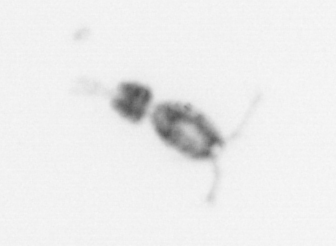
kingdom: Animalia
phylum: Arthropoda
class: Copepoda
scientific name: Copepoda
